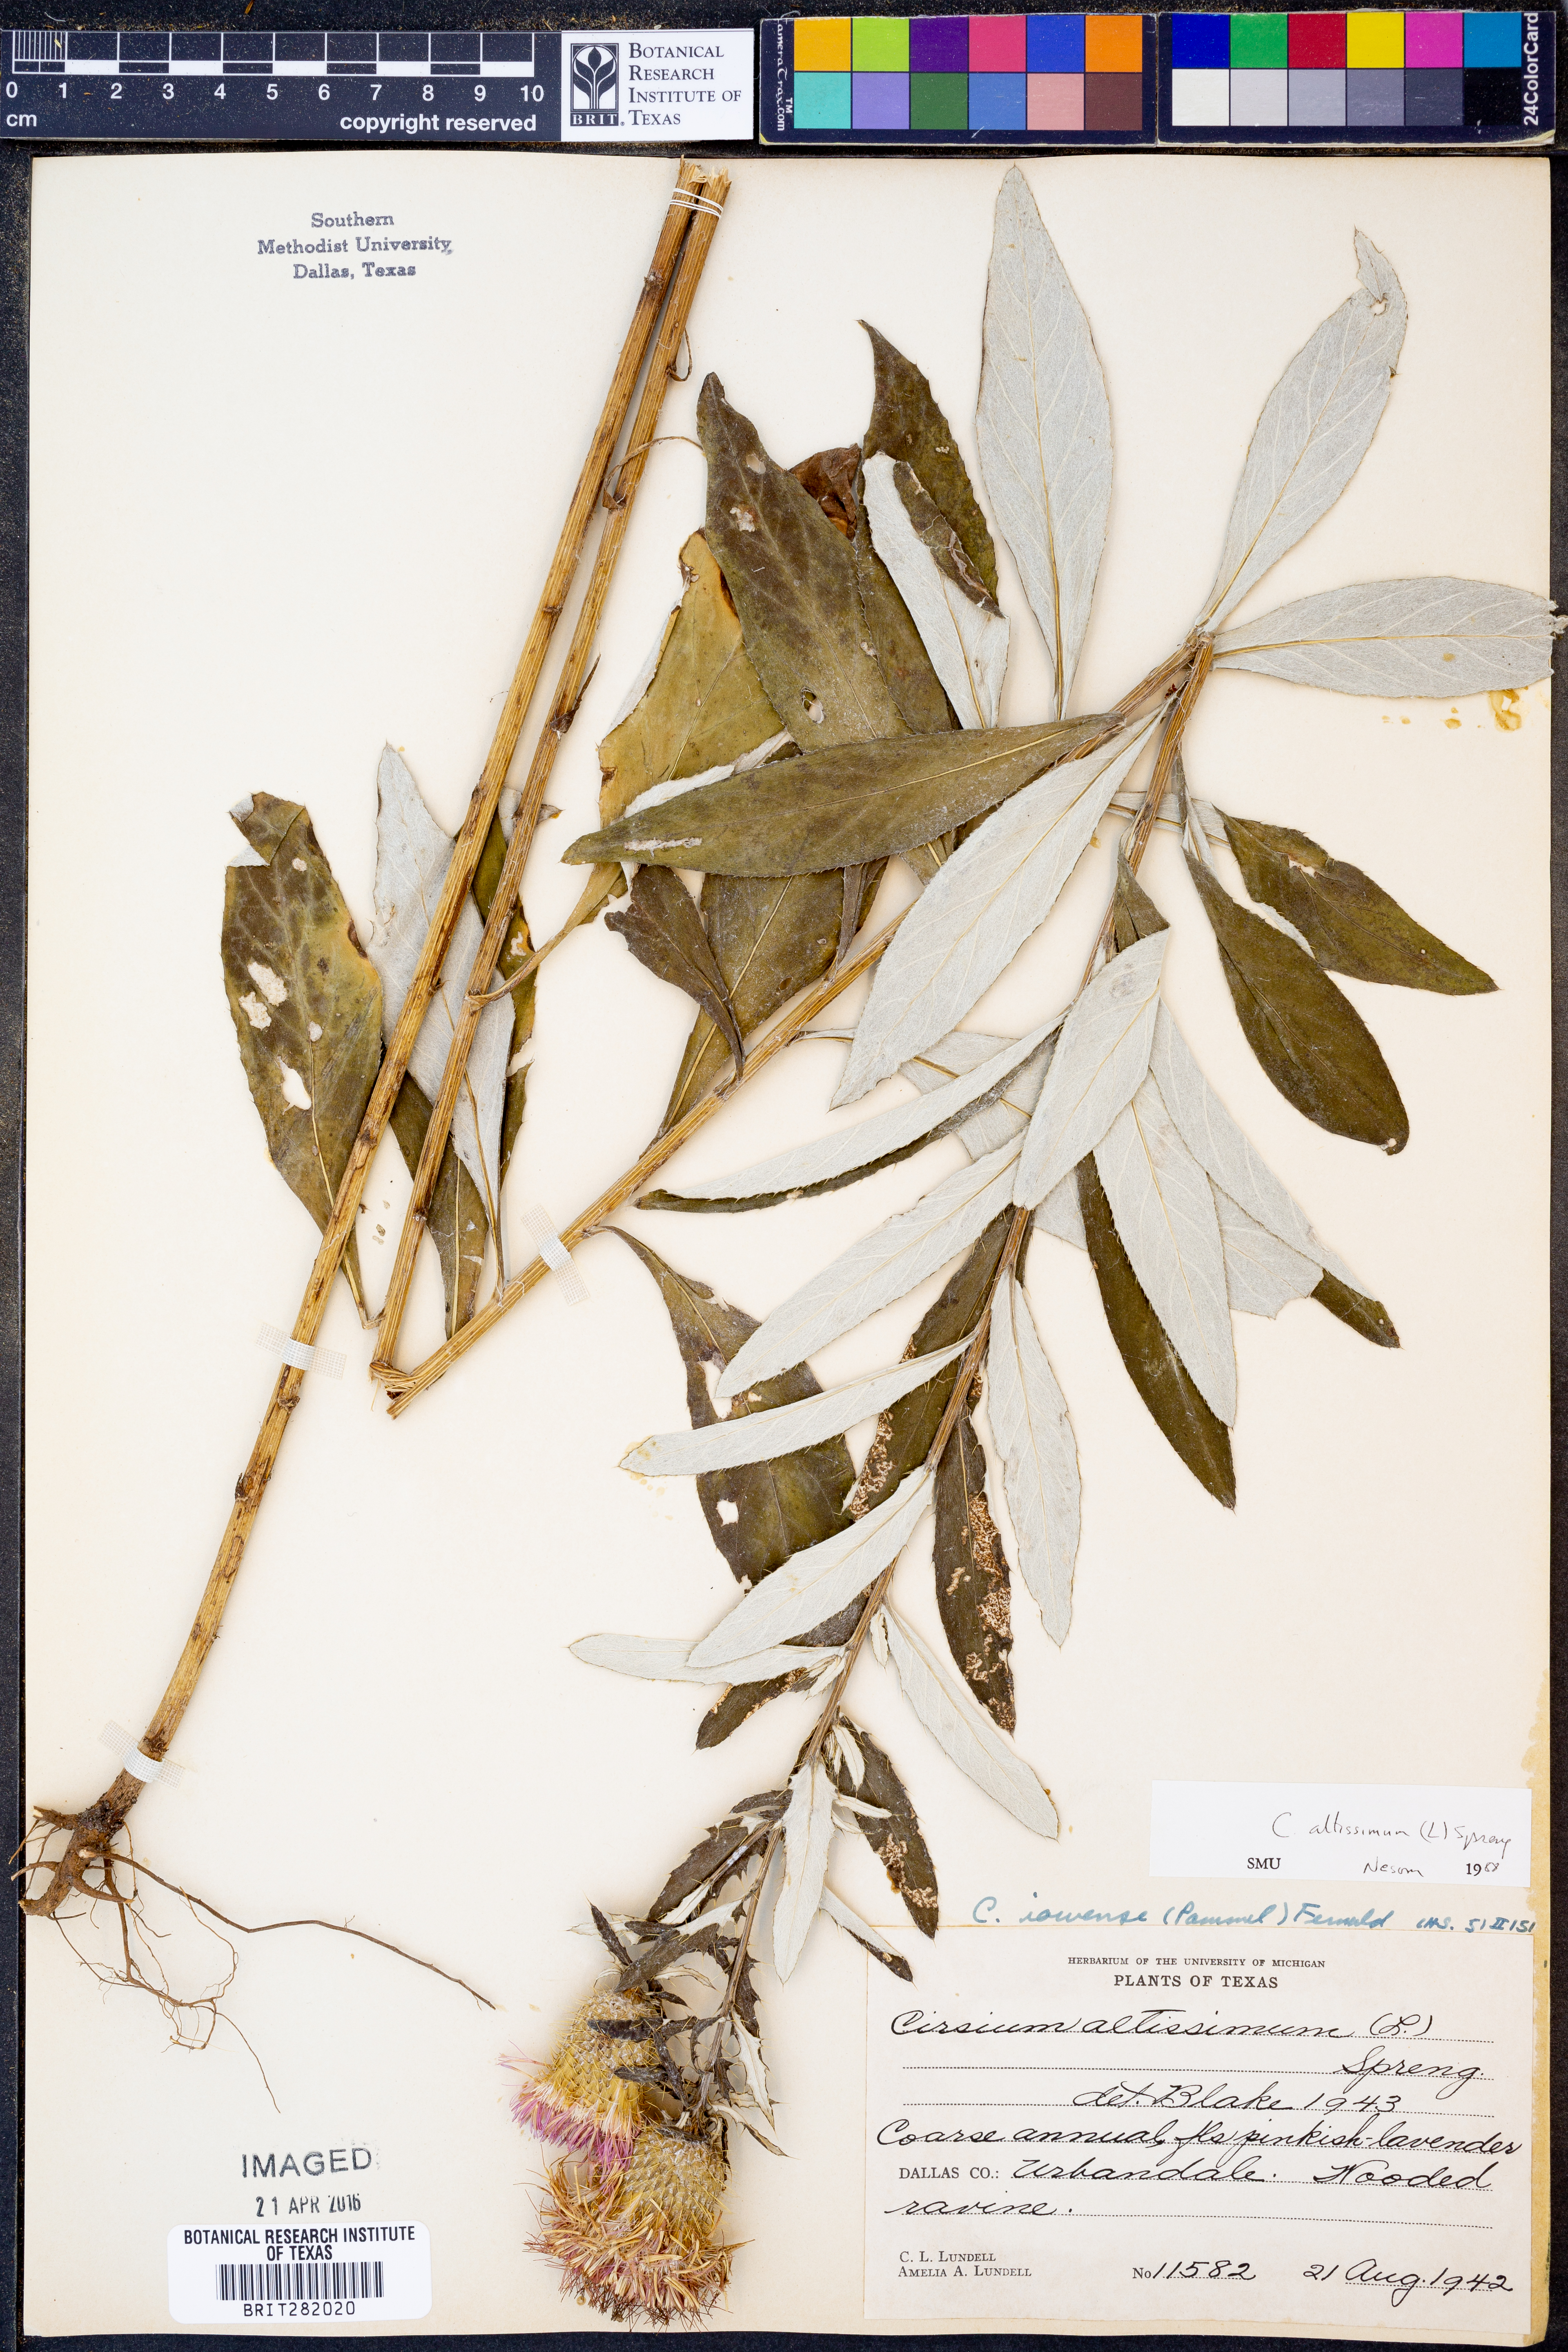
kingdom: Plantae
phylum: Tracheophyta
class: Magnoliopsida
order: Asterales
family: Asteraceae
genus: Cirsium
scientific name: Cirsium altissimum
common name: Roadside thistle
